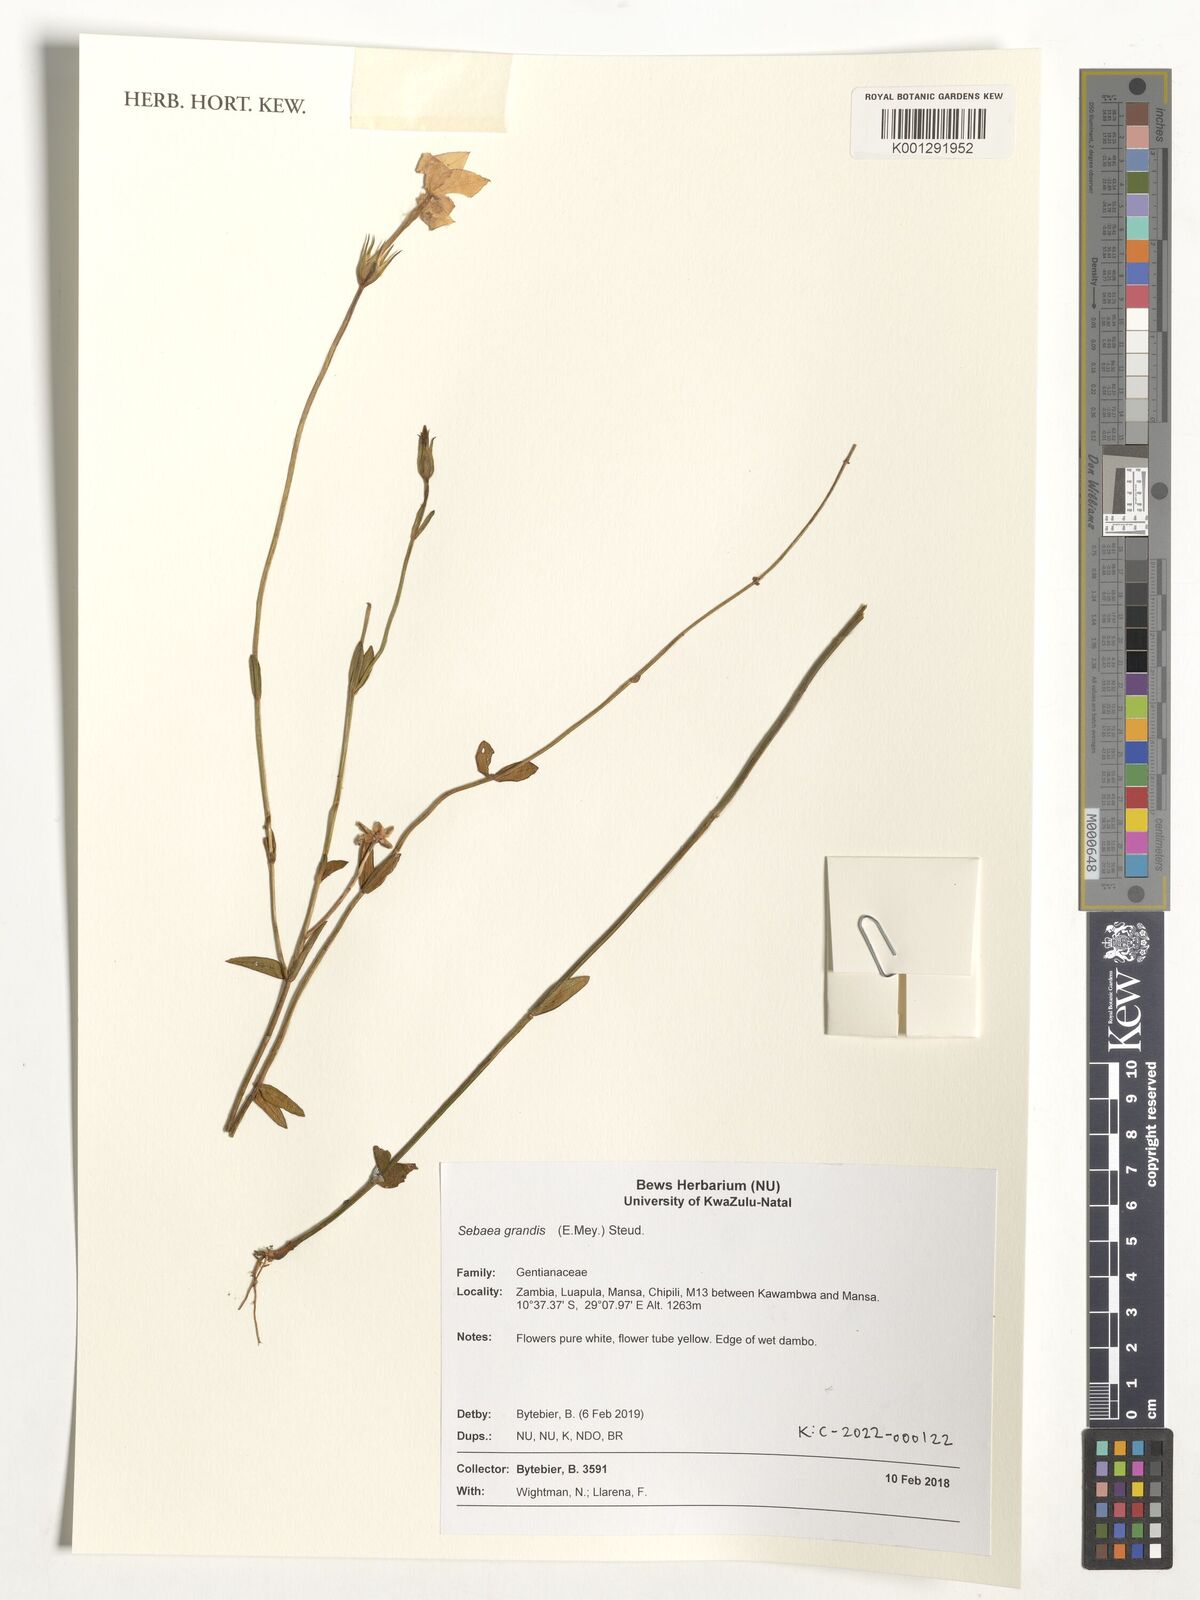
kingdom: Plantae
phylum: Tracheophyta
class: Magnoliopsida
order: Gentianales
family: Gentianaceae
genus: Exochaenium
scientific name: Exochaenium grande
